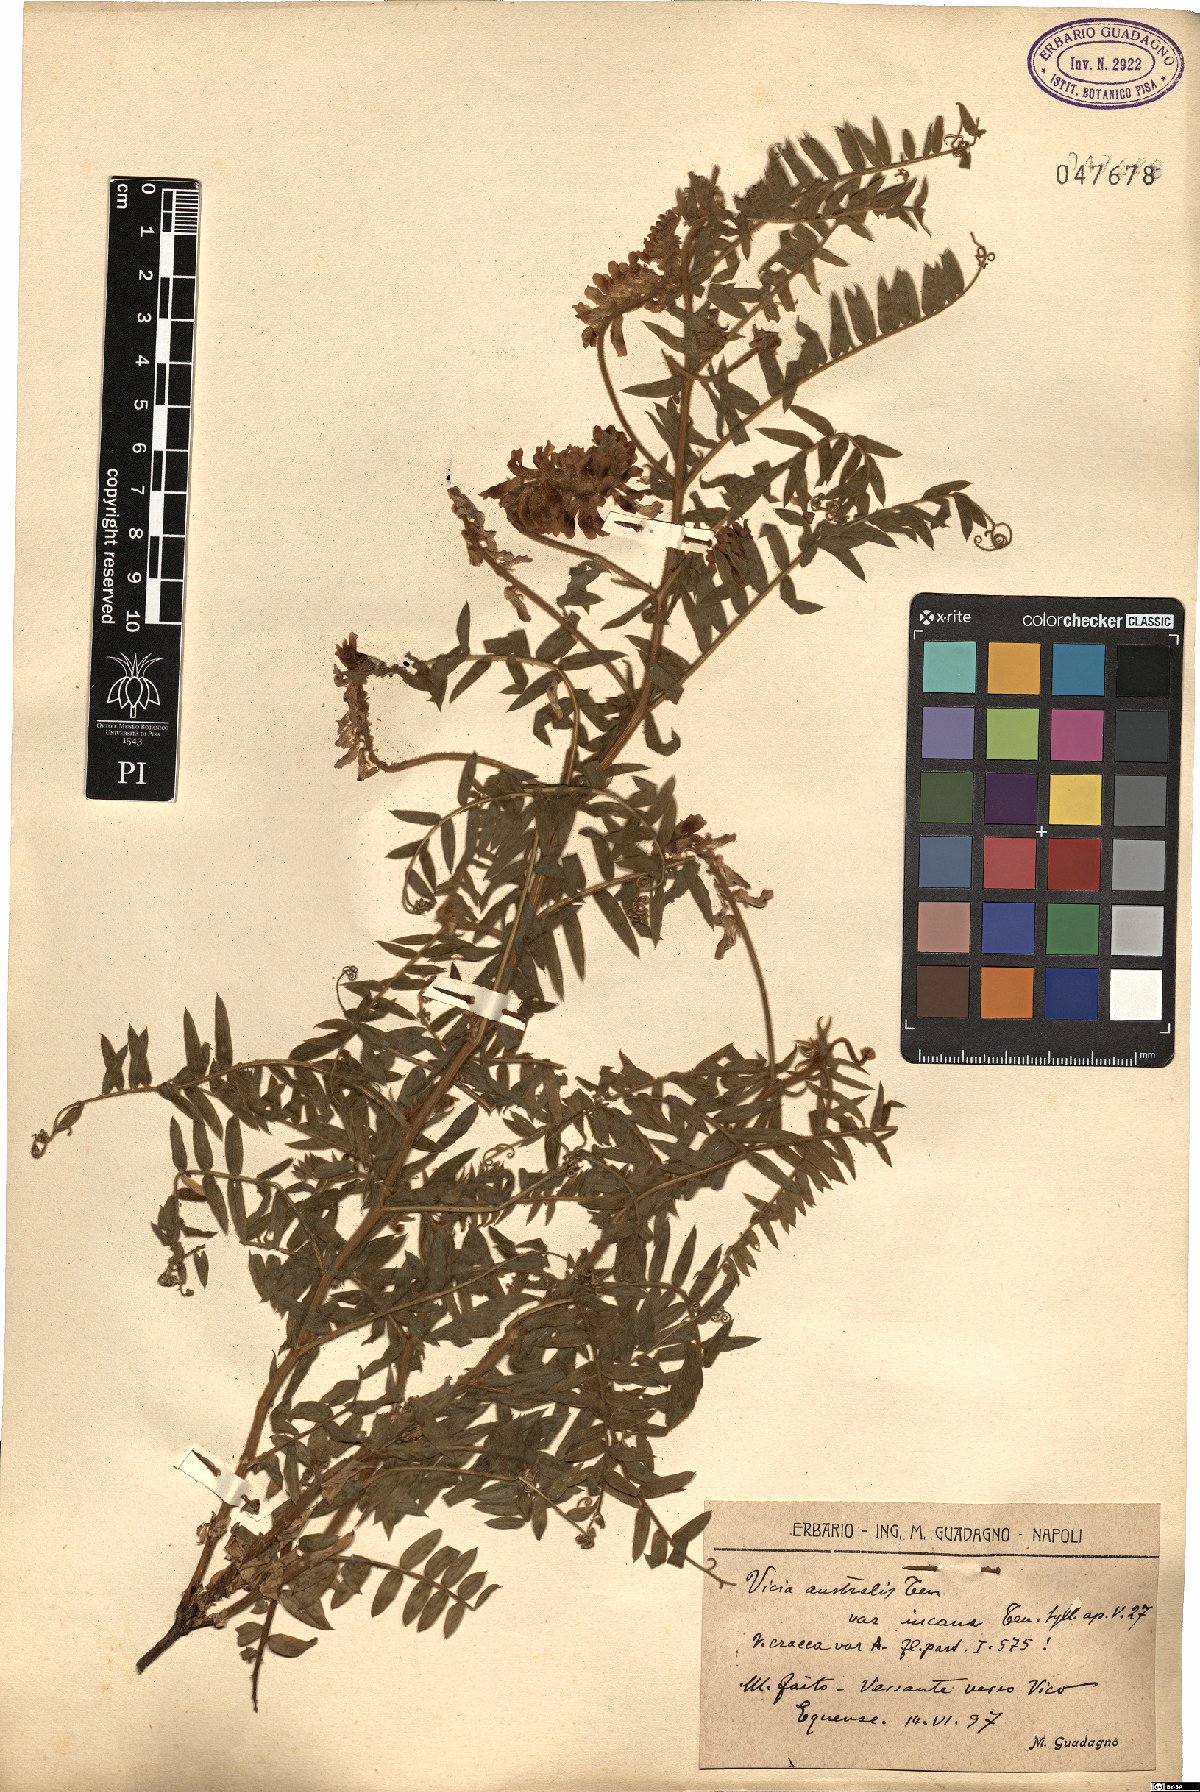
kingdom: Plantae
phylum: Tracheophyta
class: Magnoliopsida
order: Fabales
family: Fabaceae
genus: Vicia
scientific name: Vicia cracca
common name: Bird vetch
